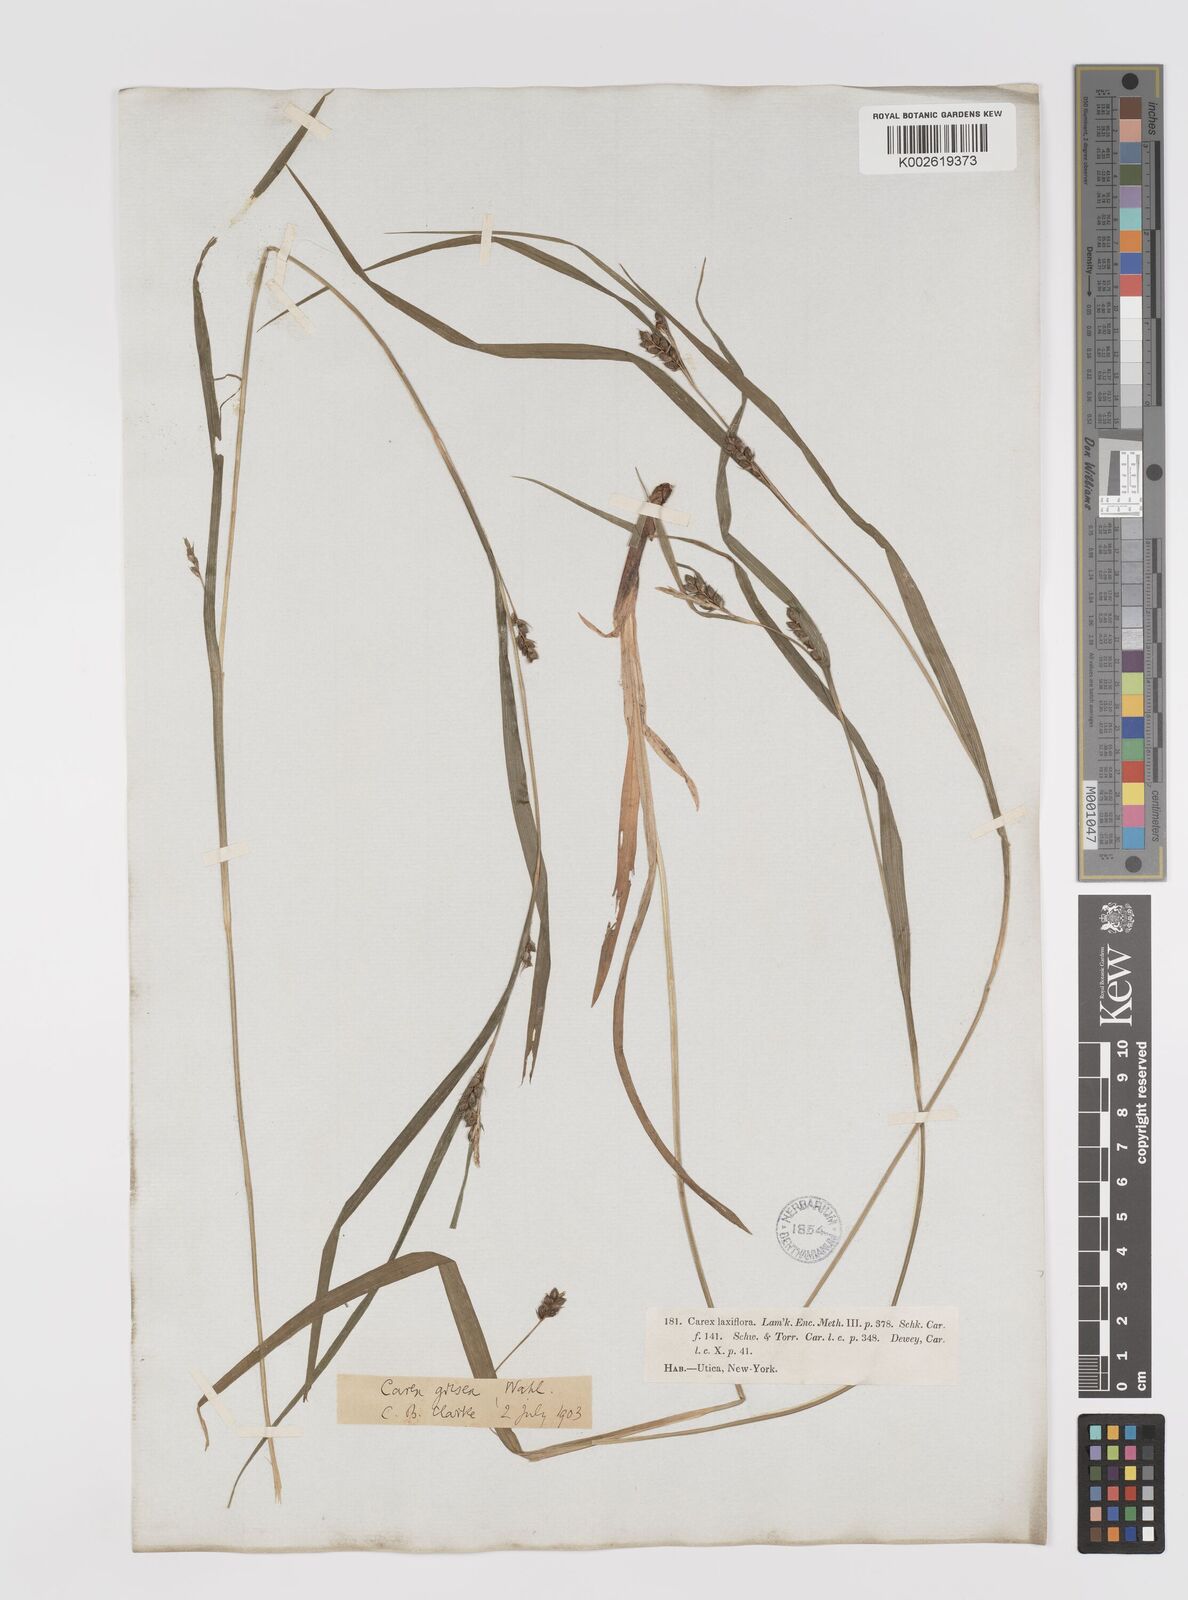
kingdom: Plantae
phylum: Tracheophyta
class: Liliopsida
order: Poales
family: Cyperaceae
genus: Carex
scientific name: Carex grisea
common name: Eastern narrow-leaved sedge
